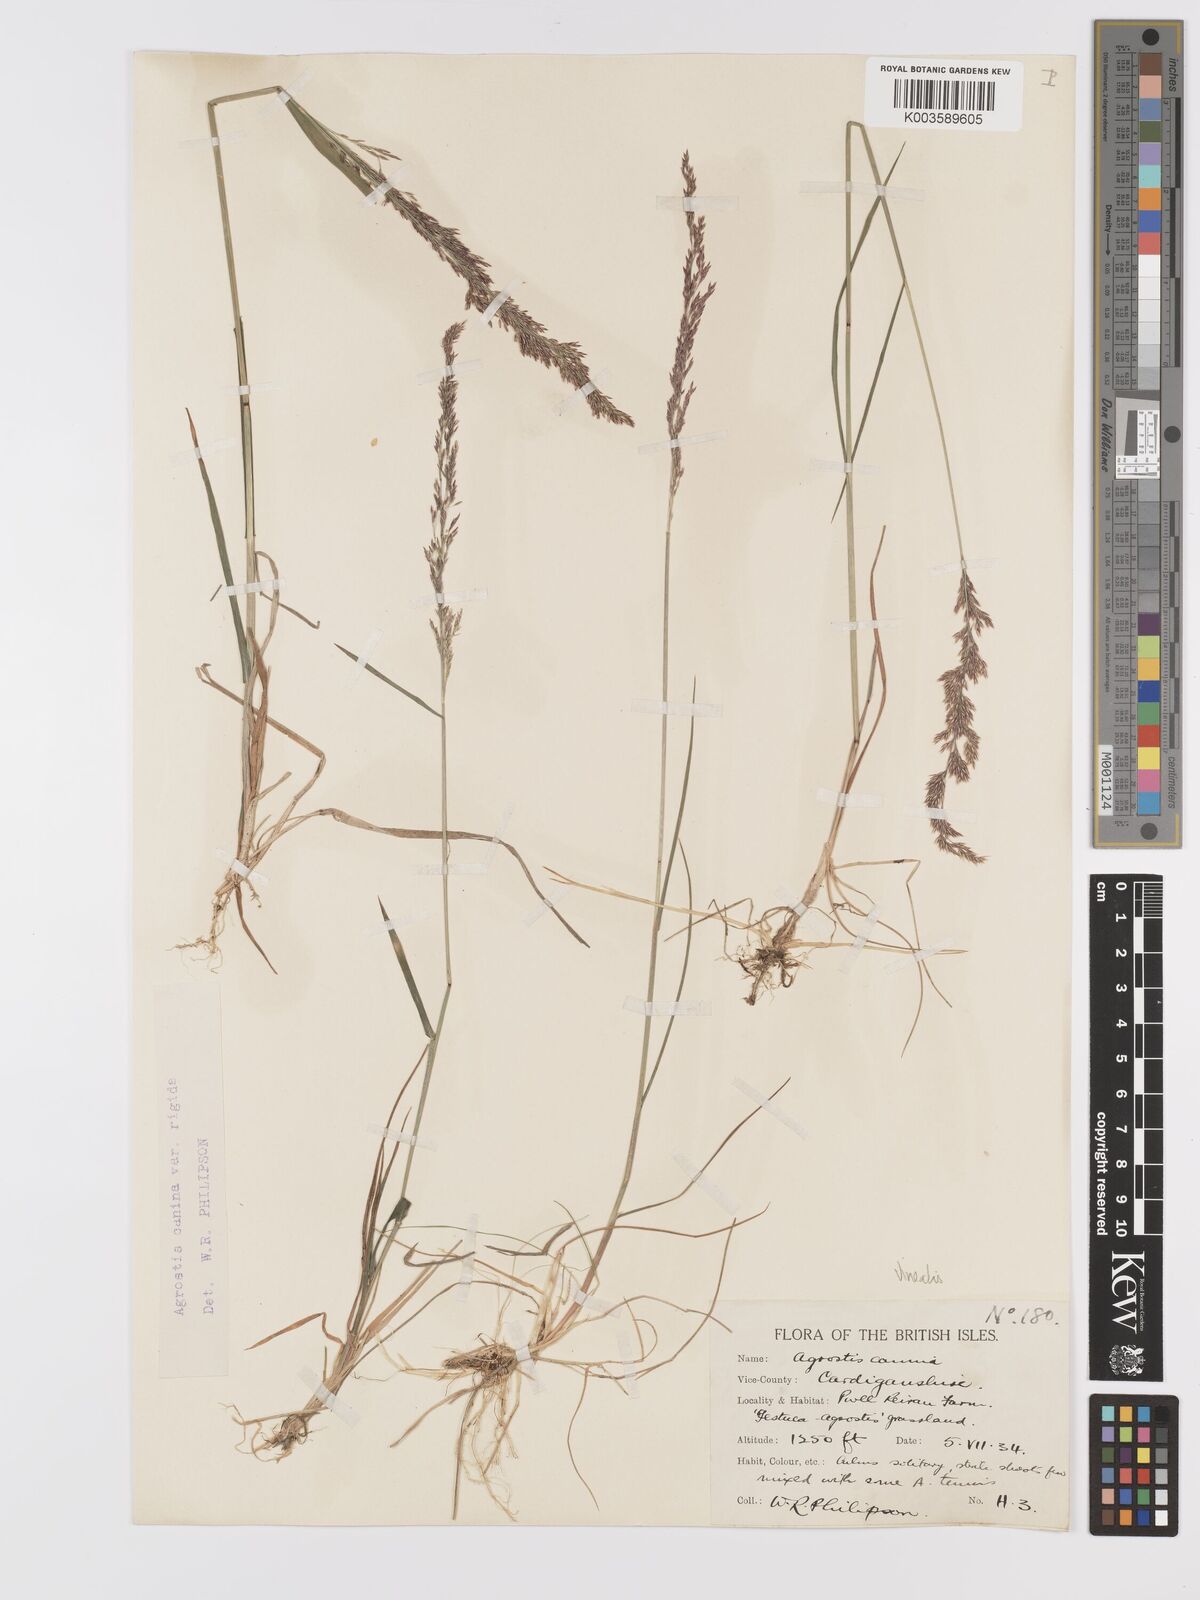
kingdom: Plantae
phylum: Tracheophyta
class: Liliopsida
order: Poales
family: Poaceae
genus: Agrostis
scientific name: Agrostis
